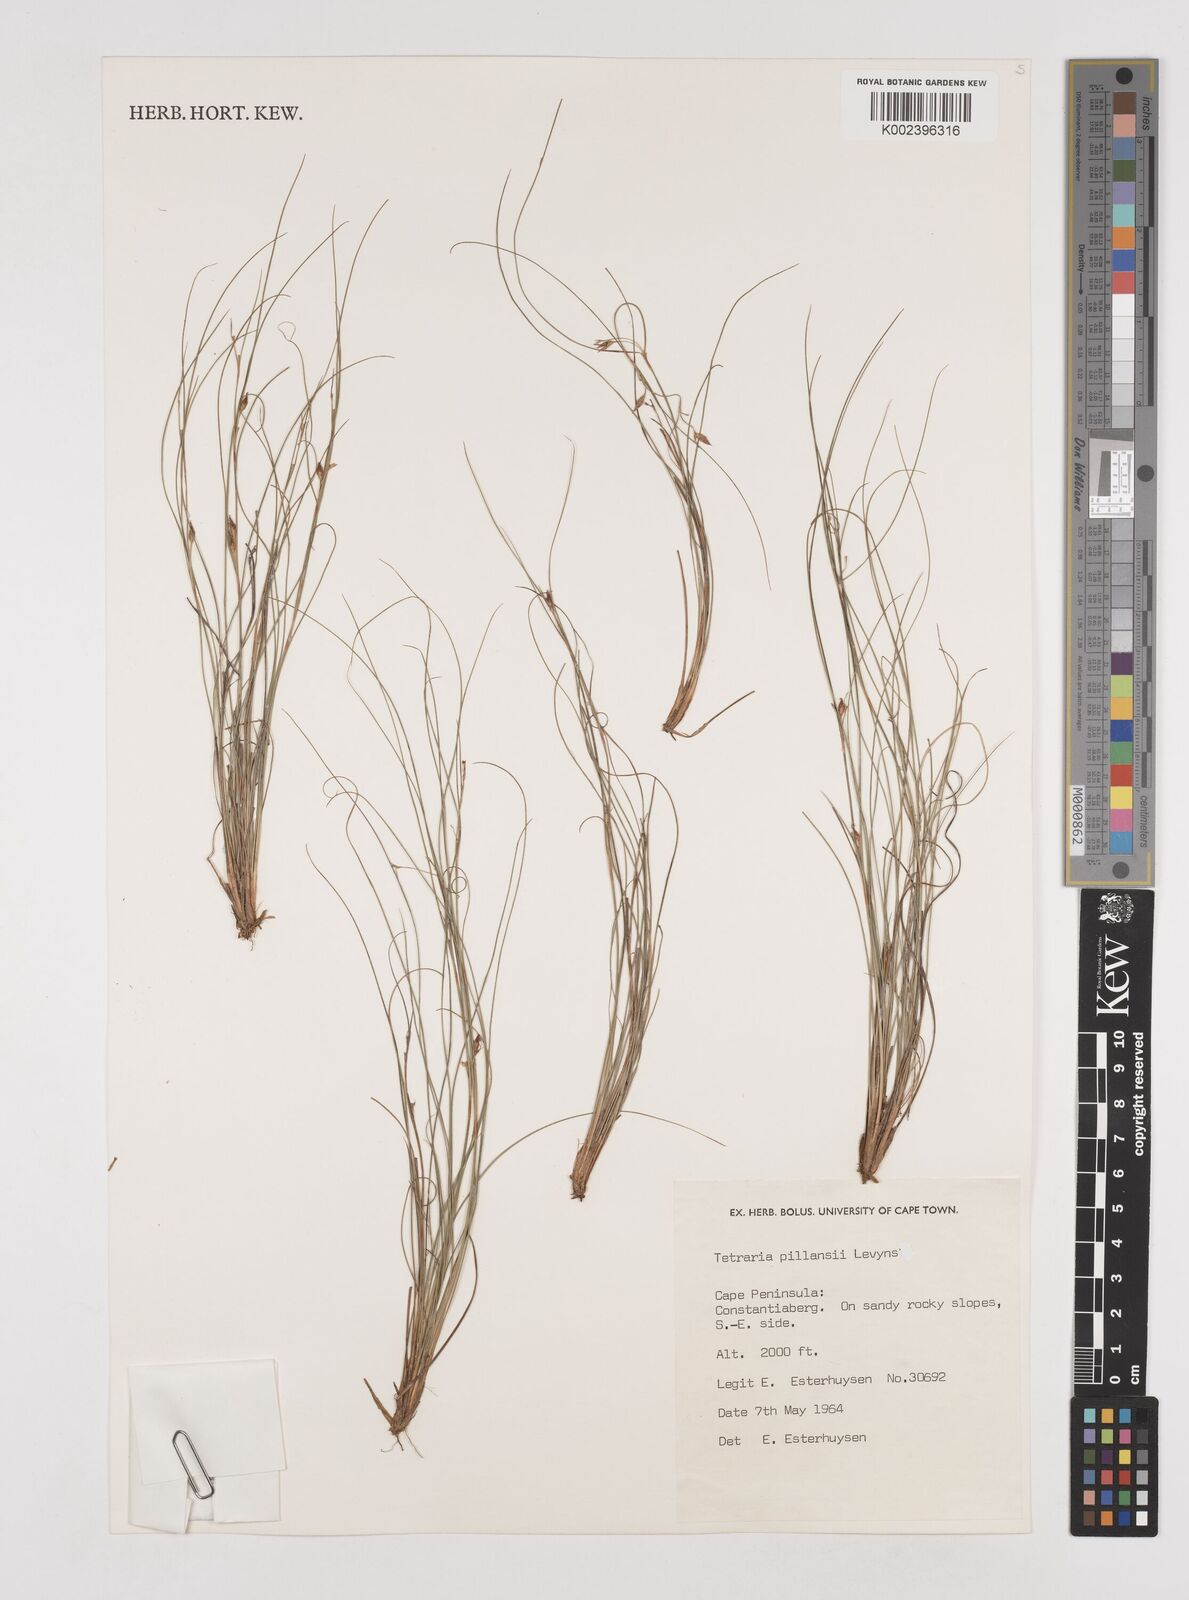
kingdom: Plantae
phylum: Tracheophyta
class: Liliopsida
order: Poales
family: Cyperaceae
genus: Tetraria
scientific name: Tetraria pillansii
